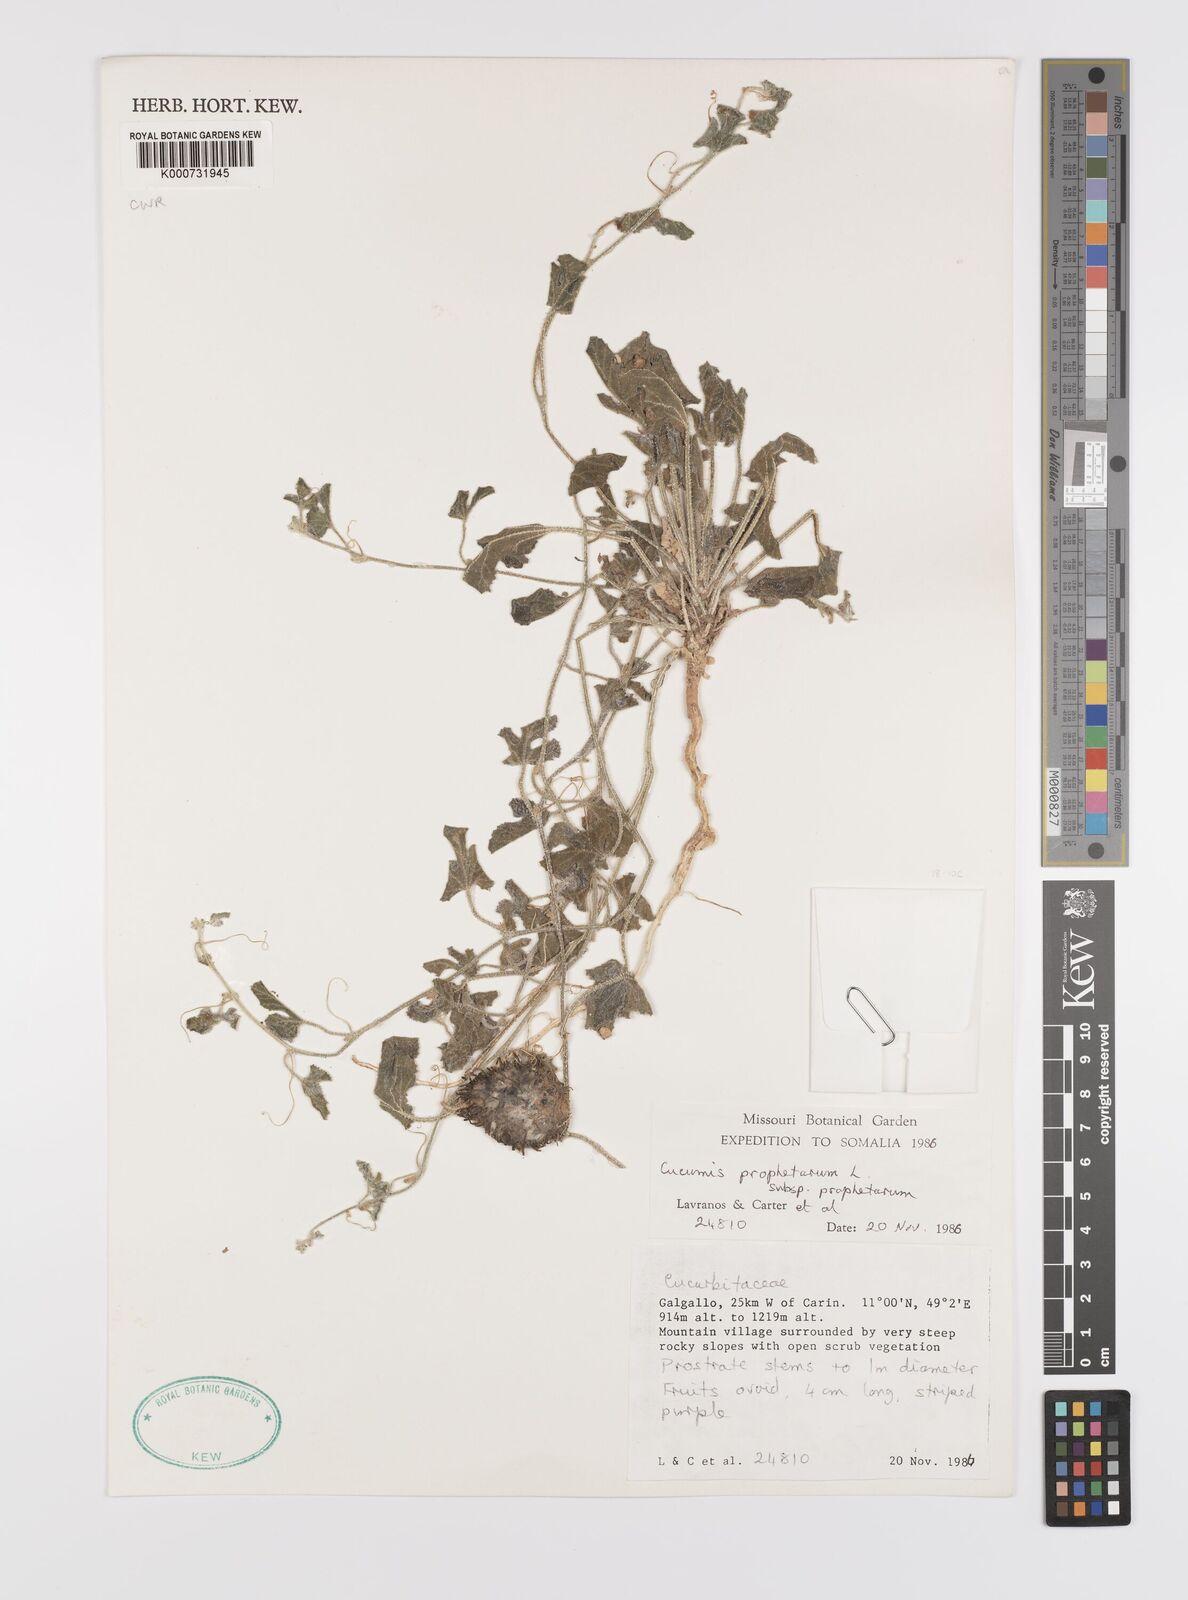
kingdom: Plantae
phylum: Tracheophyta
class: Magnoliopsida
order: Cucurbitales
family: Cucurbitaceae
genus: Cucumis
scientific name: Cucumis prophetarum
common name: Wild cucumber
